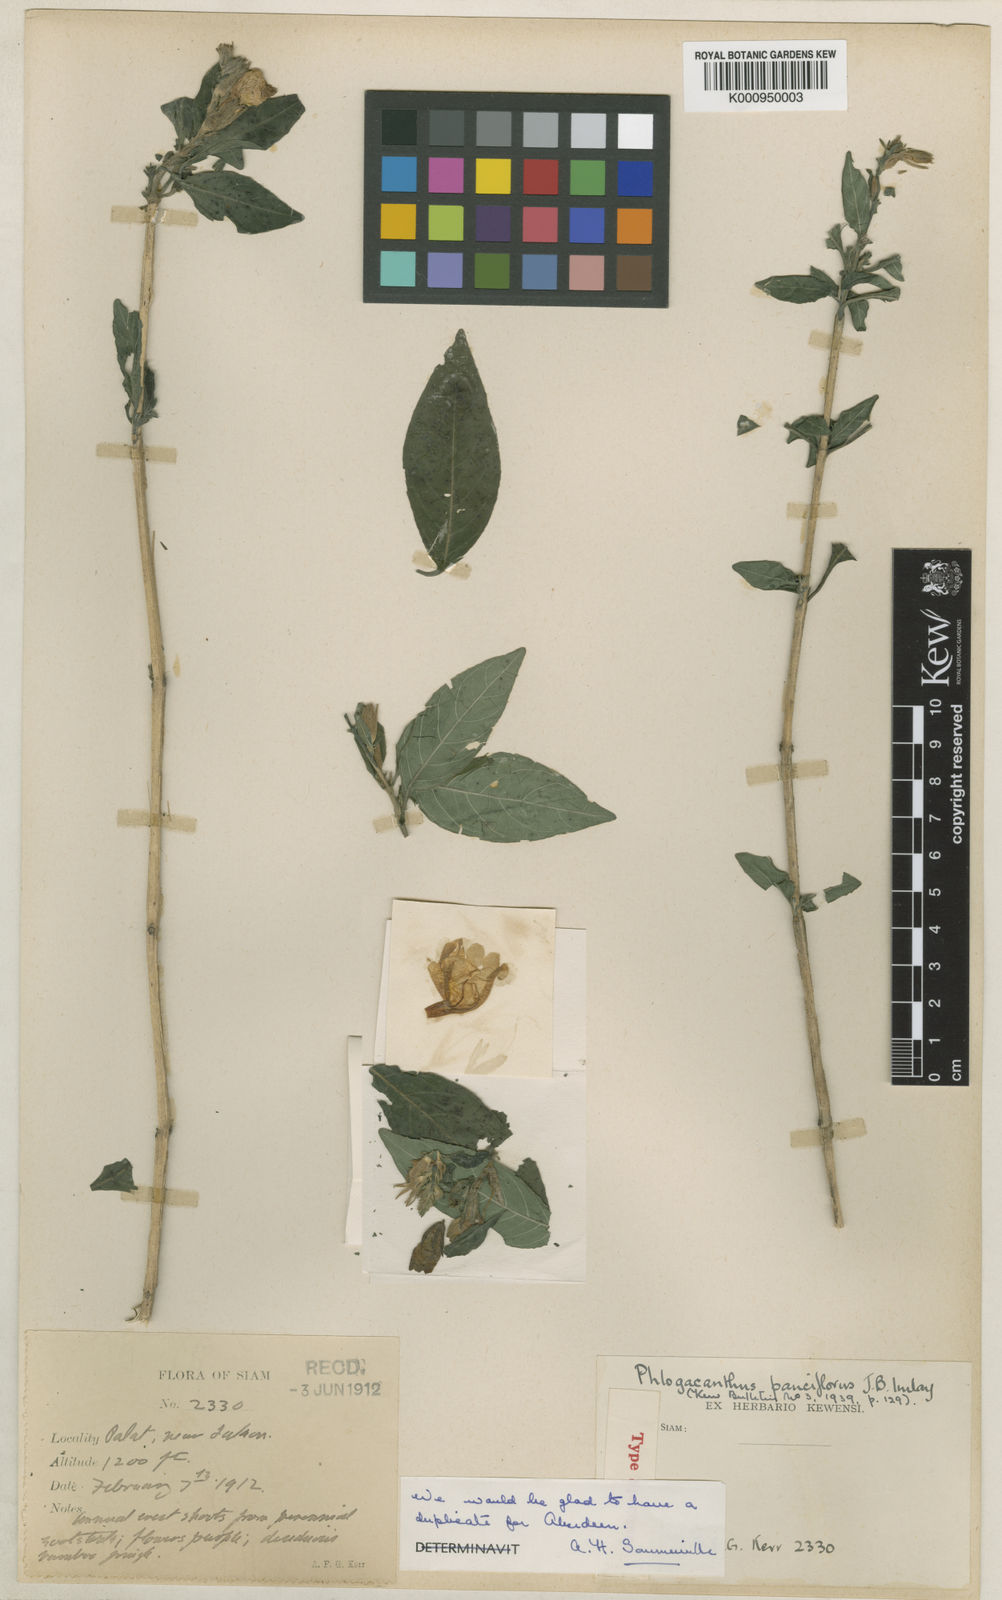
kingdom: Plantae
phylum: Tracheophyta
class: Magnoliopsida
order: Lamiales
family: Acanthaceae
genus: Phlogacanthus
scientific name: Phlogacanthus pauciflorus
